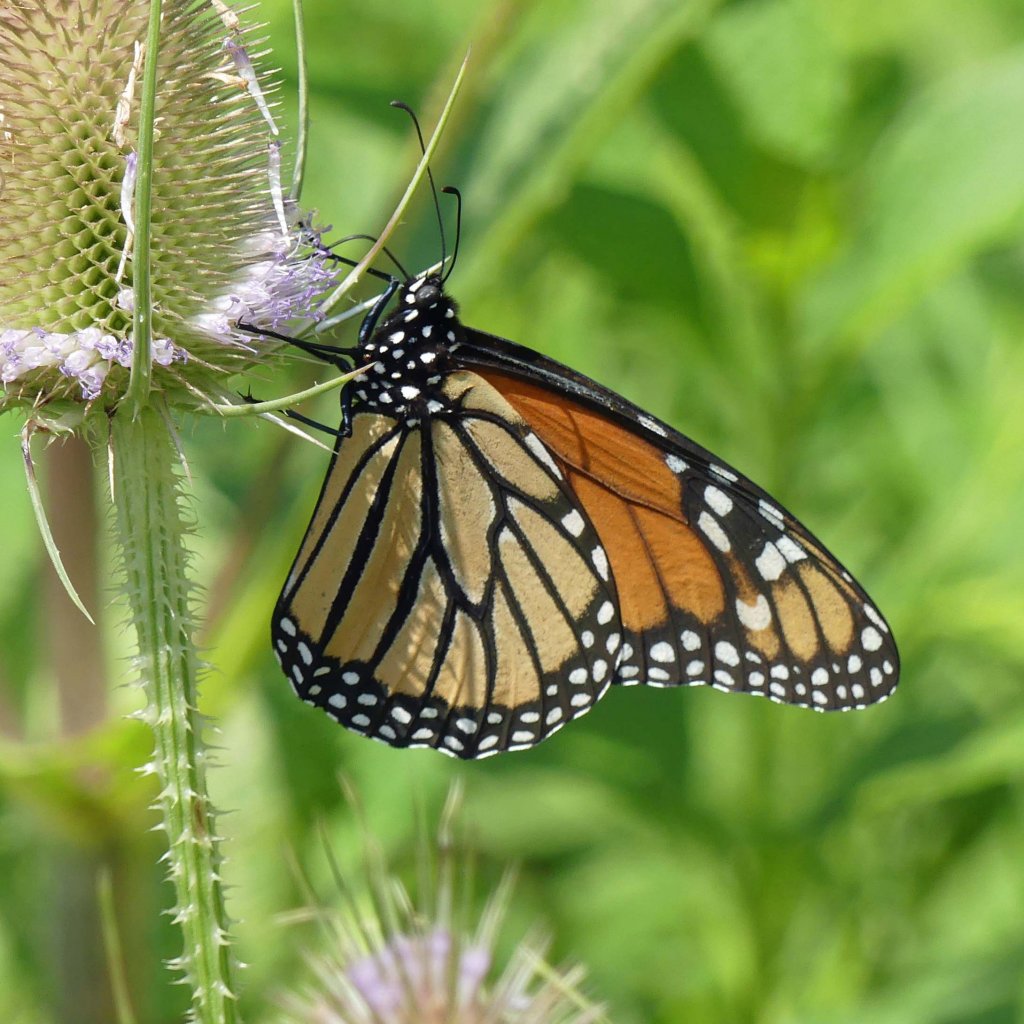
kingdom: Animalia
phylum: Arthropoda
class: Insecta
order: Lepidoptera
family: Nymphalidae
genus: Danaus
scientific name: Danaus plexippus
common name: Monarch
